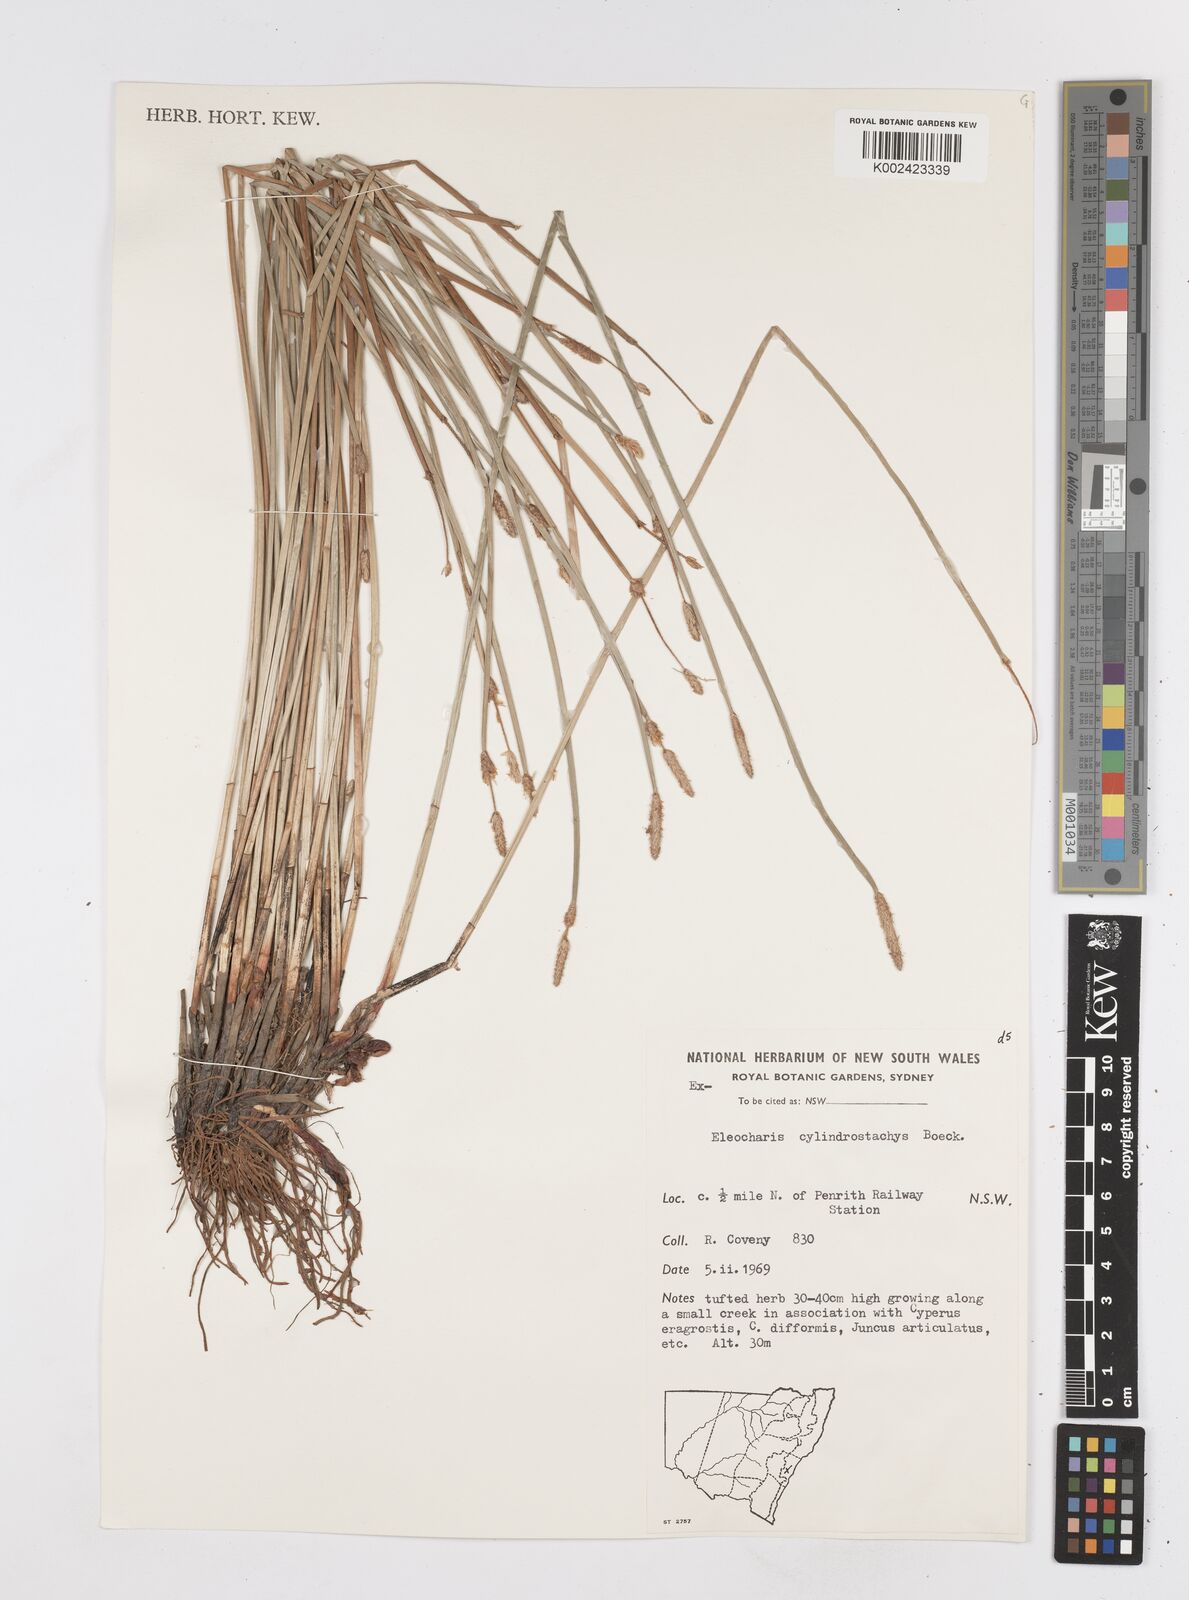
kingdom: Plantae
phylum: Tracheophyta
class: Liliopsida
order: Poales
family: Cyperaceae
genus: Eleocharis
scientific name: Eleocharis cylindrostachys
